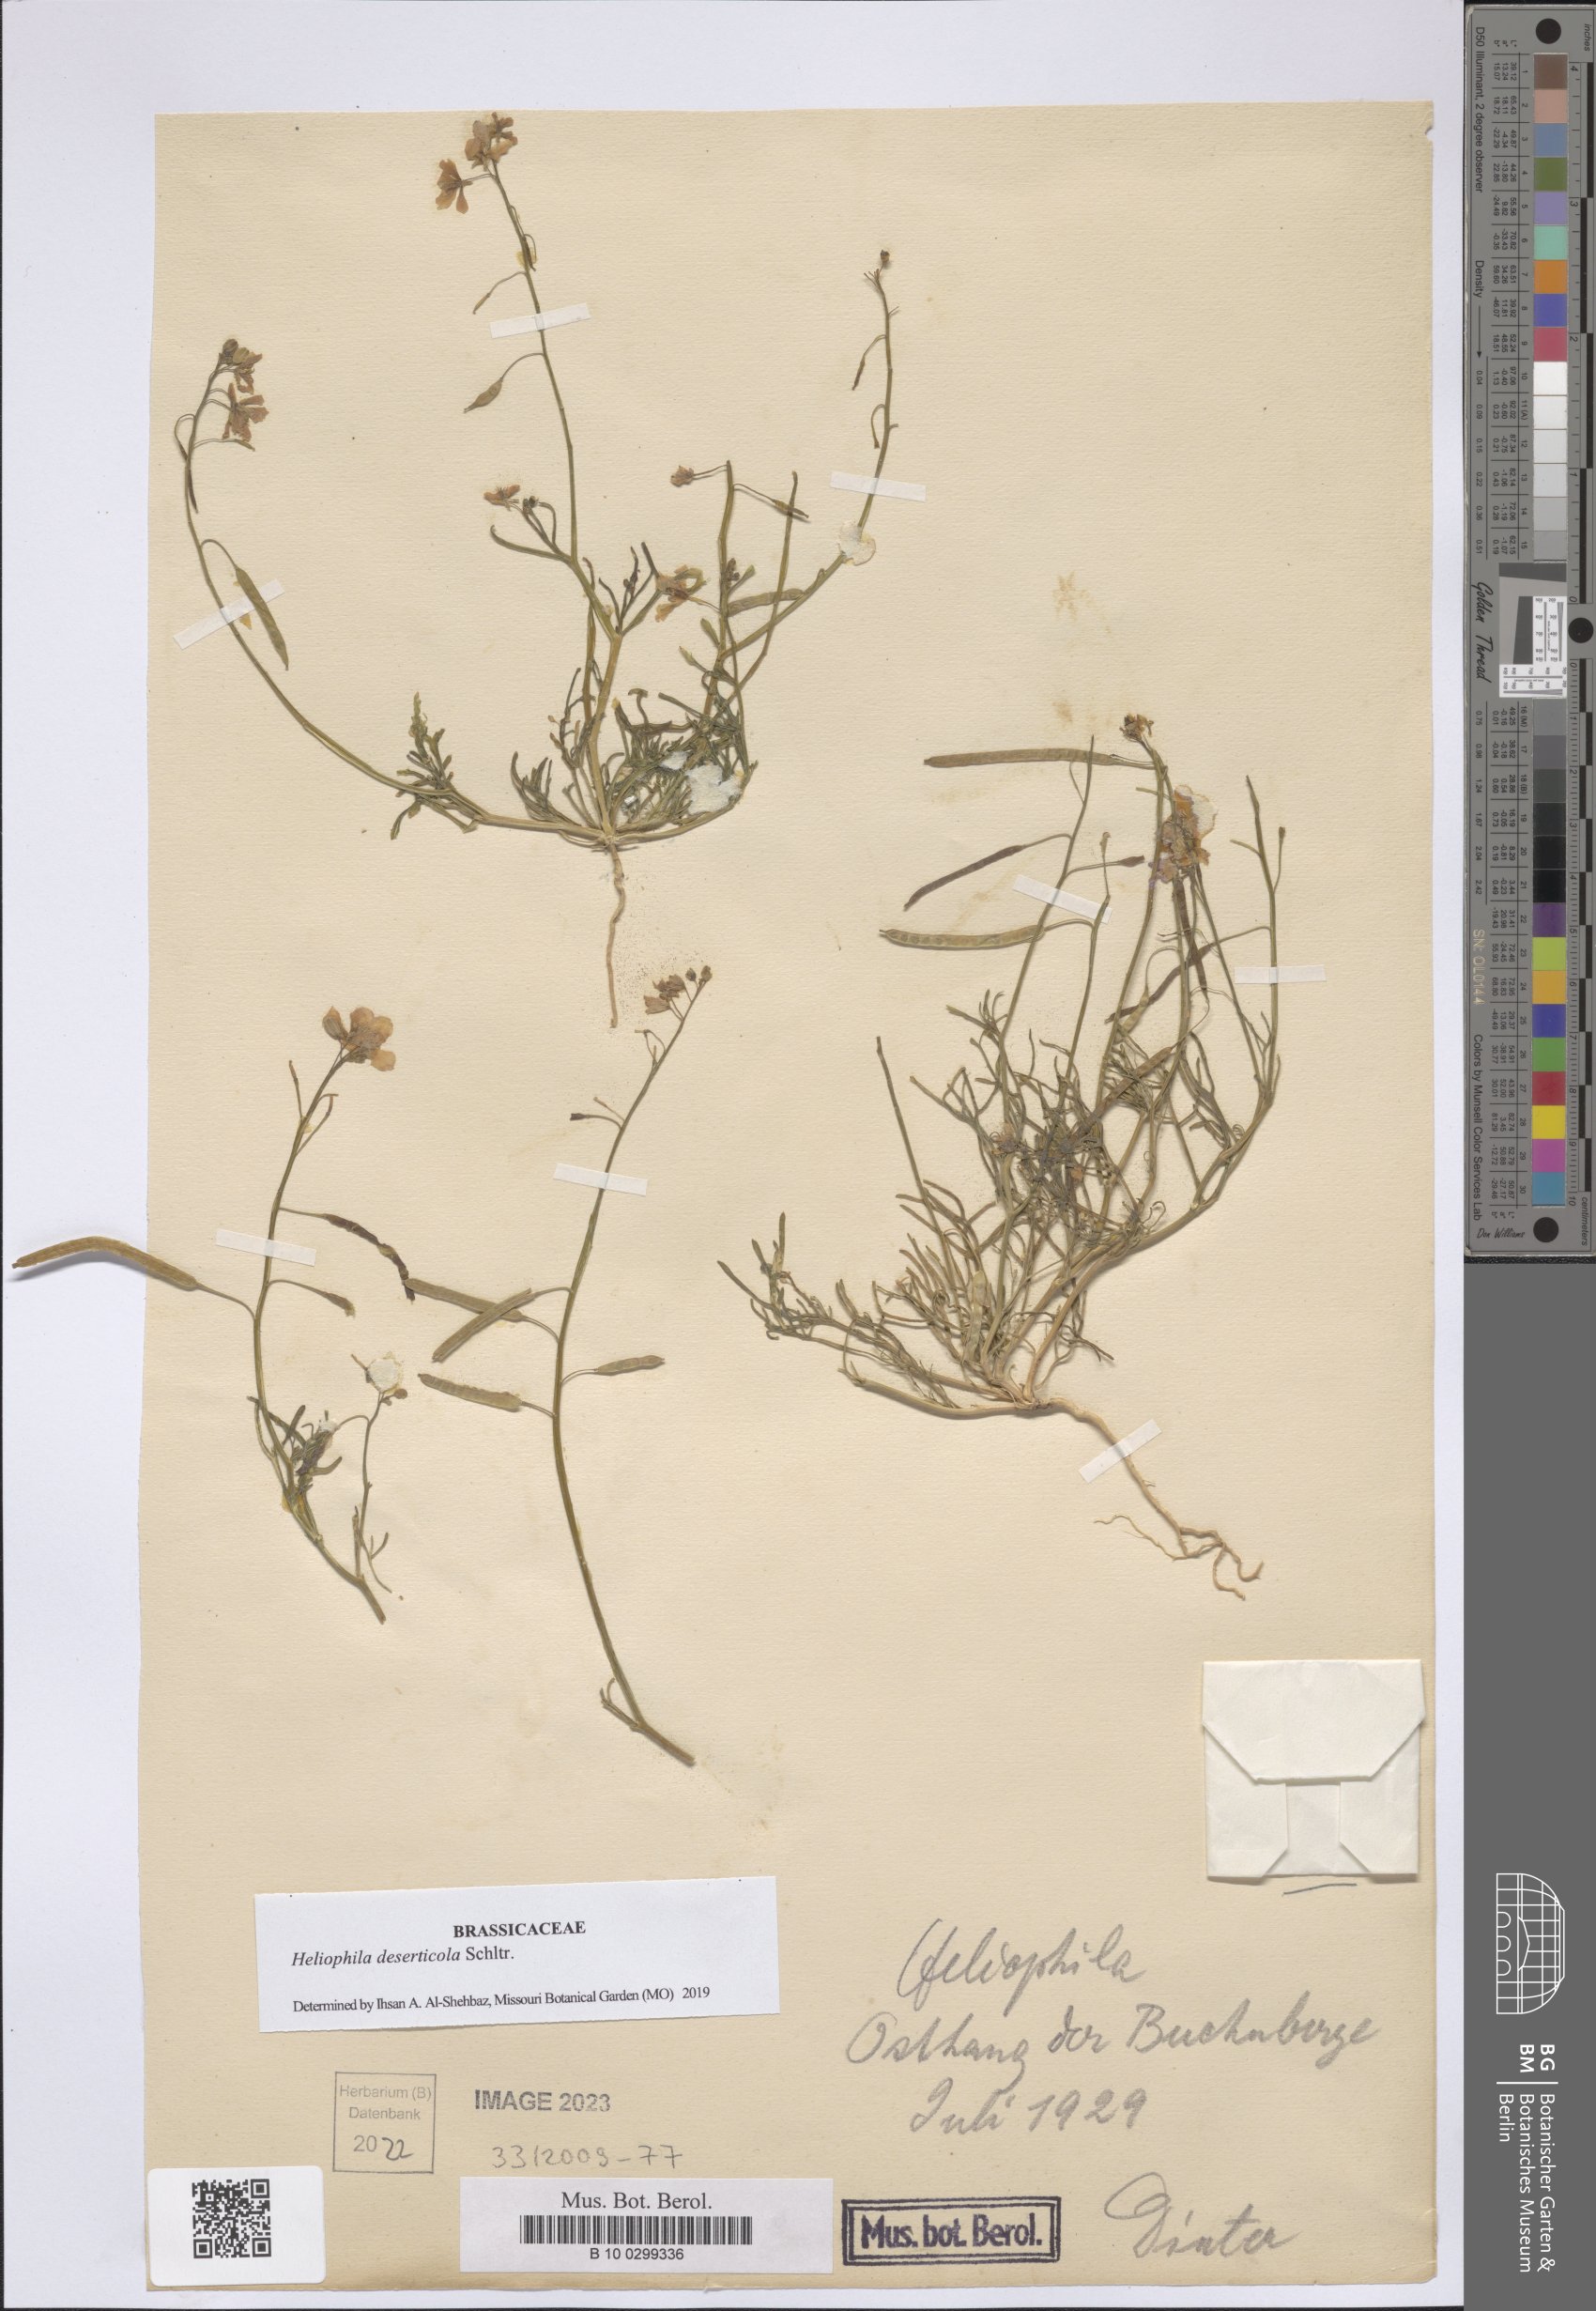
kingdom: Plantae
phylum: Tracheophyta
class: Magnoliopsida
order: Brassicales
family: Brassicaceae
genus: Heliophila
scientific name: Heliophila deserticola
